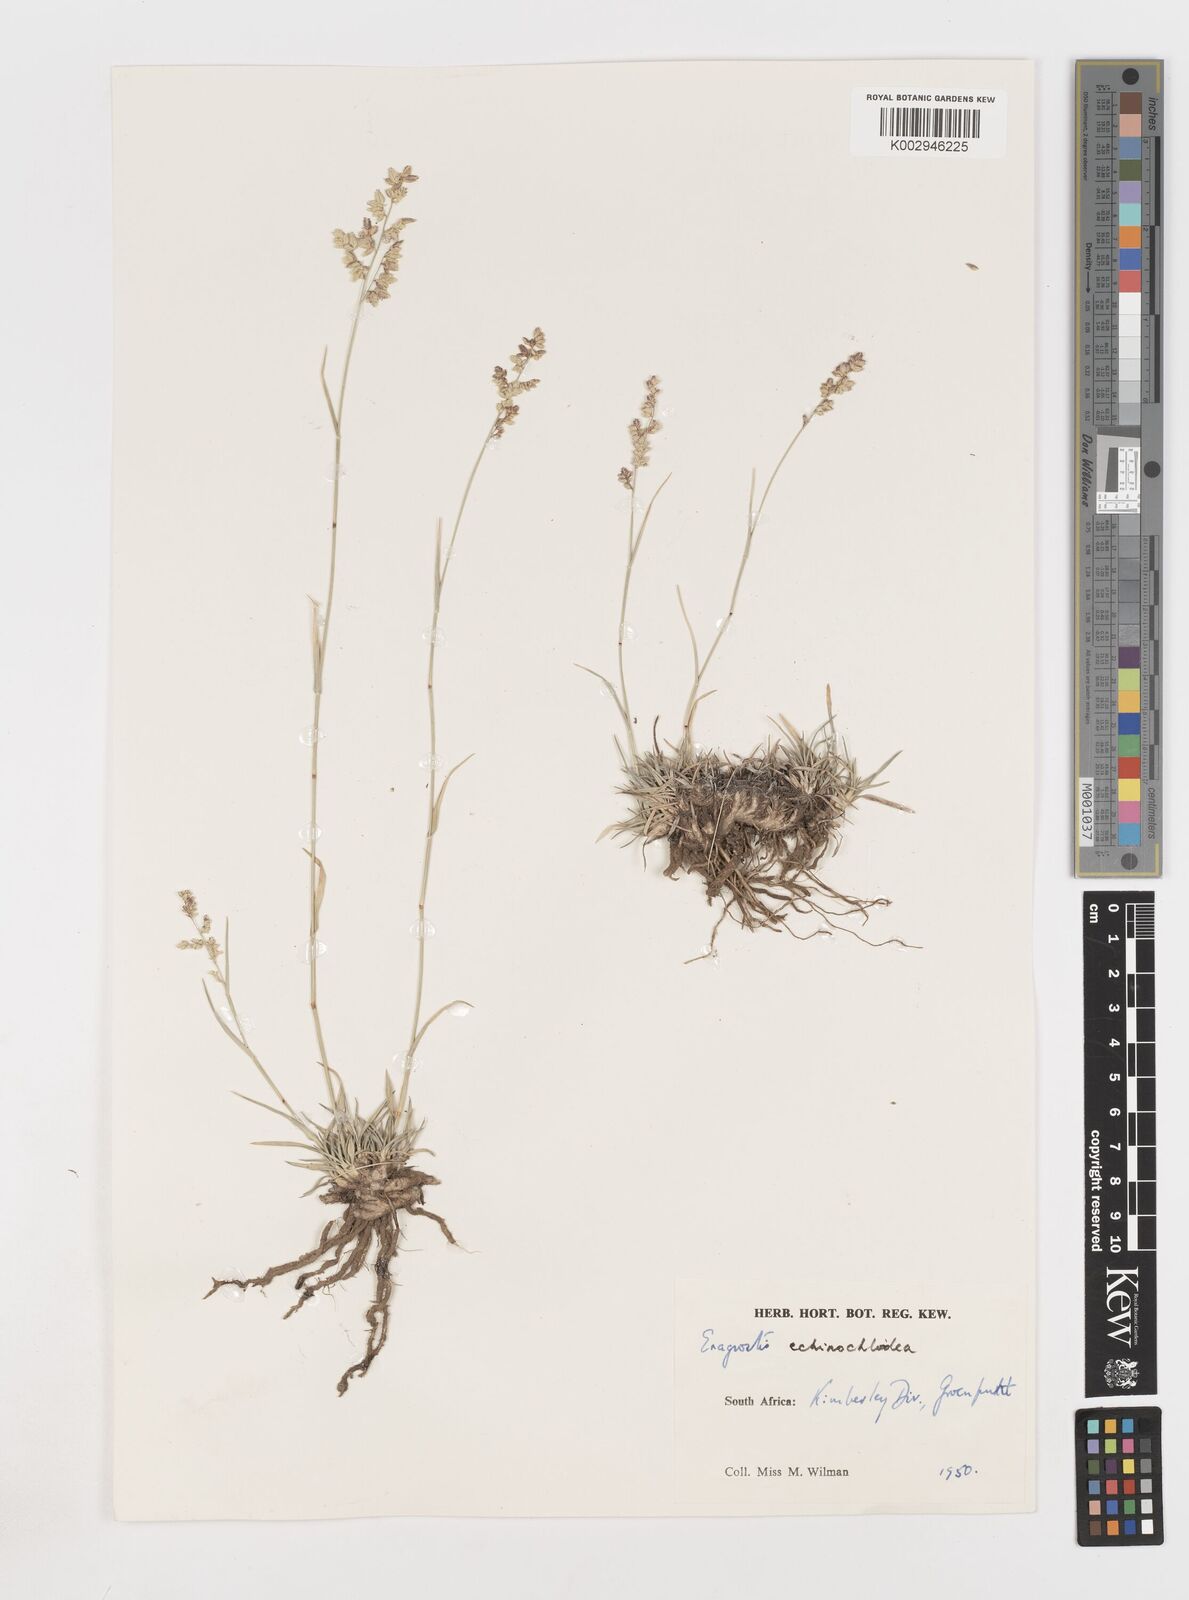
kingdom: Plantae
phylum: Tracheophyta
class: Liliopsida
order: Poales
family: Poaceae
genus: Eragrostis
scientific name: Eragrostis echinochloidea
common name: African lovegrass
